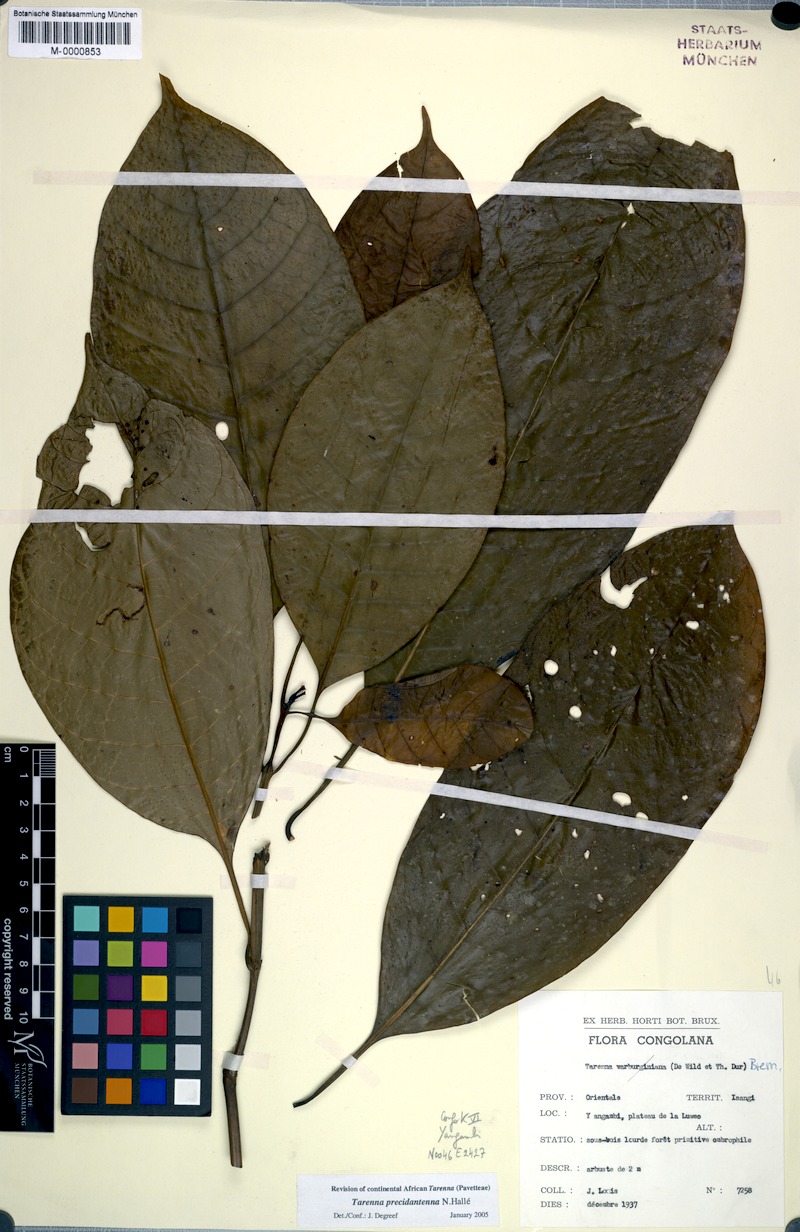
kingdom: Plantae
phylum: Tracheophyta
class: Magnoliopsida
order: Gentianales
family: Rubiaceae
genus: Tarenna
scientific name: Tarenna precidantenna
